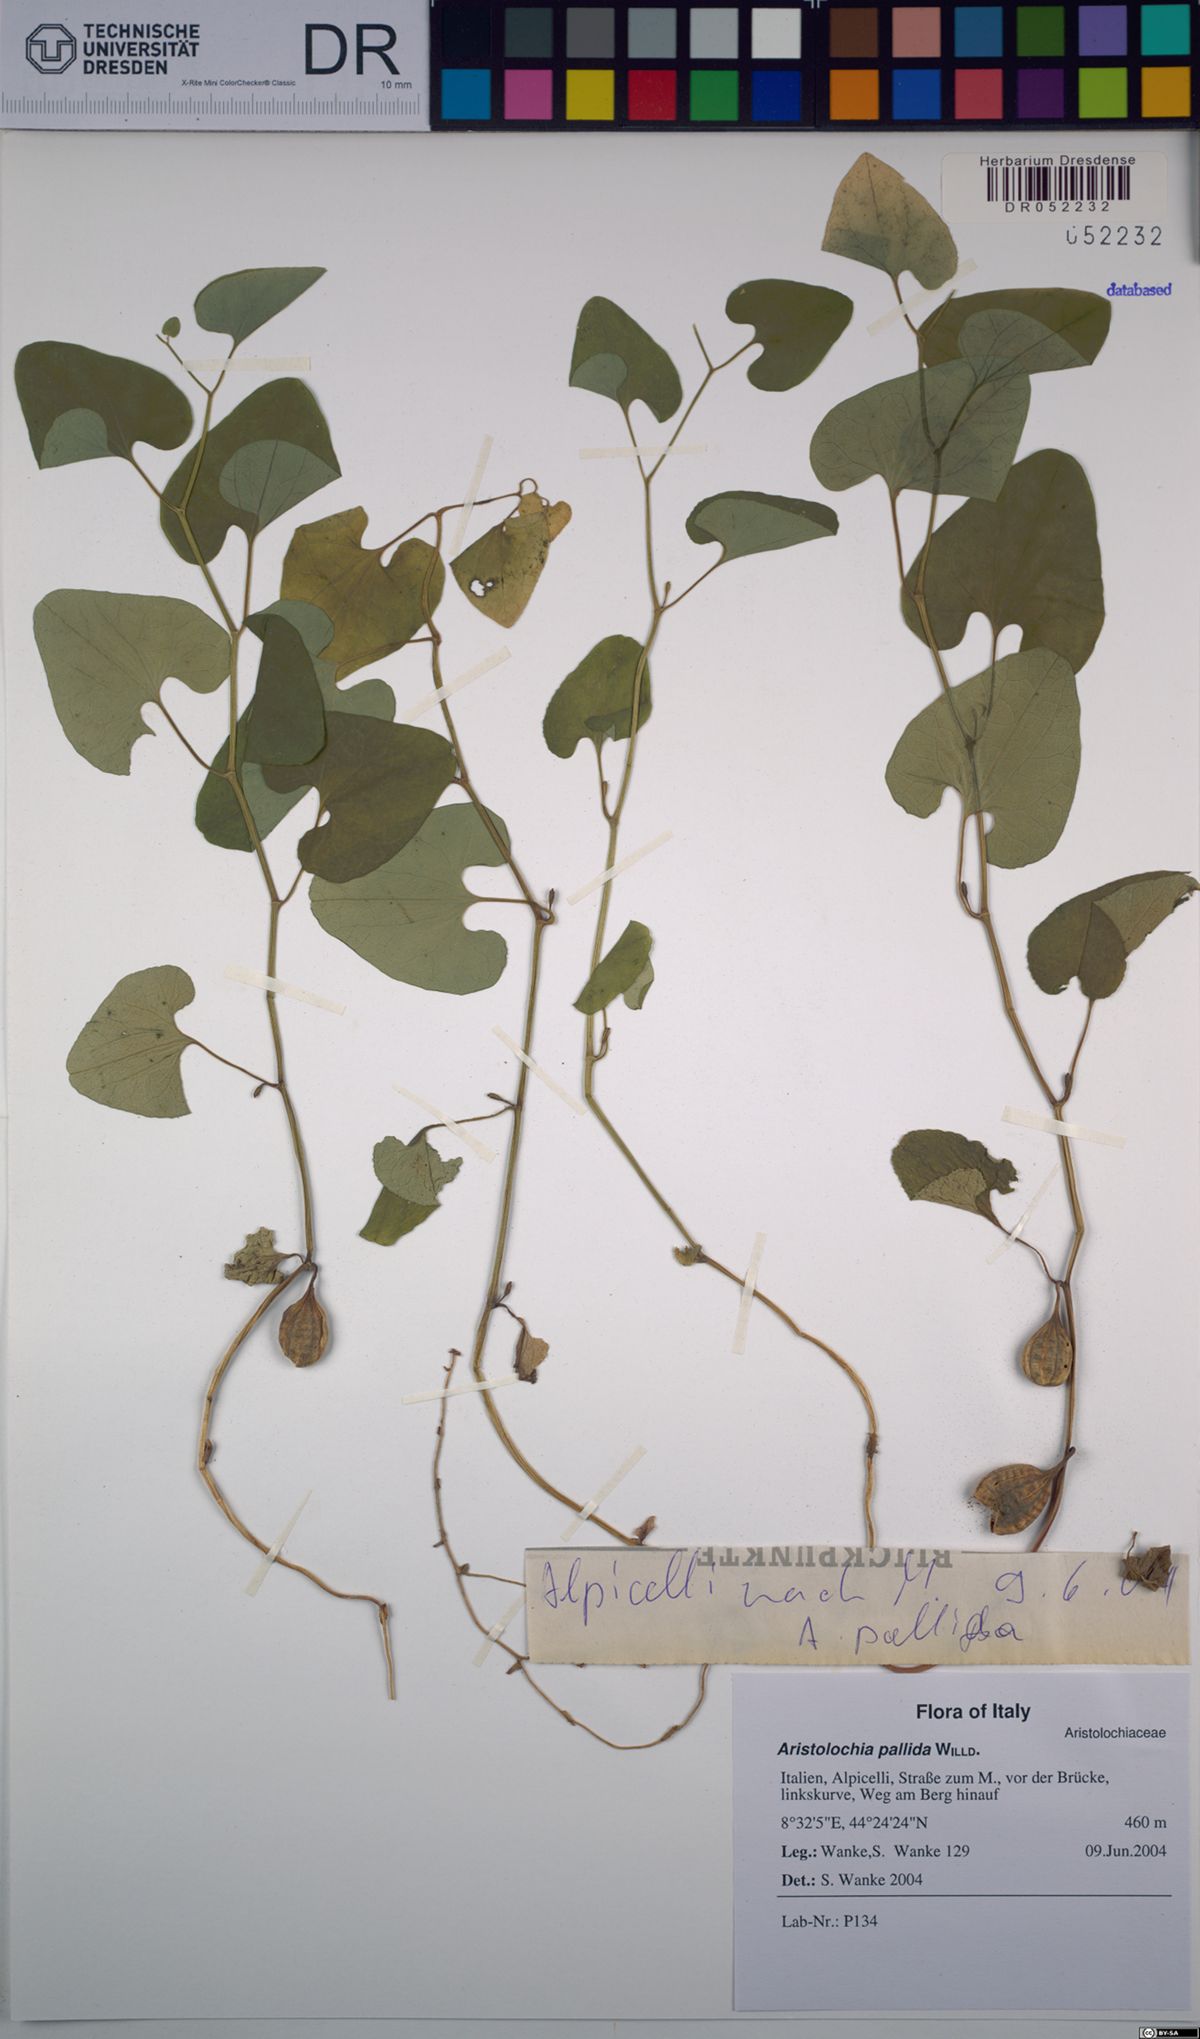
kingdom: Plantae
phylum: Tracheophyta
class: Magnoliopsida
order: Piperales
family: Aristolochiaceae
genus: Aristolochia
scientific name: Aristolochia pallida
